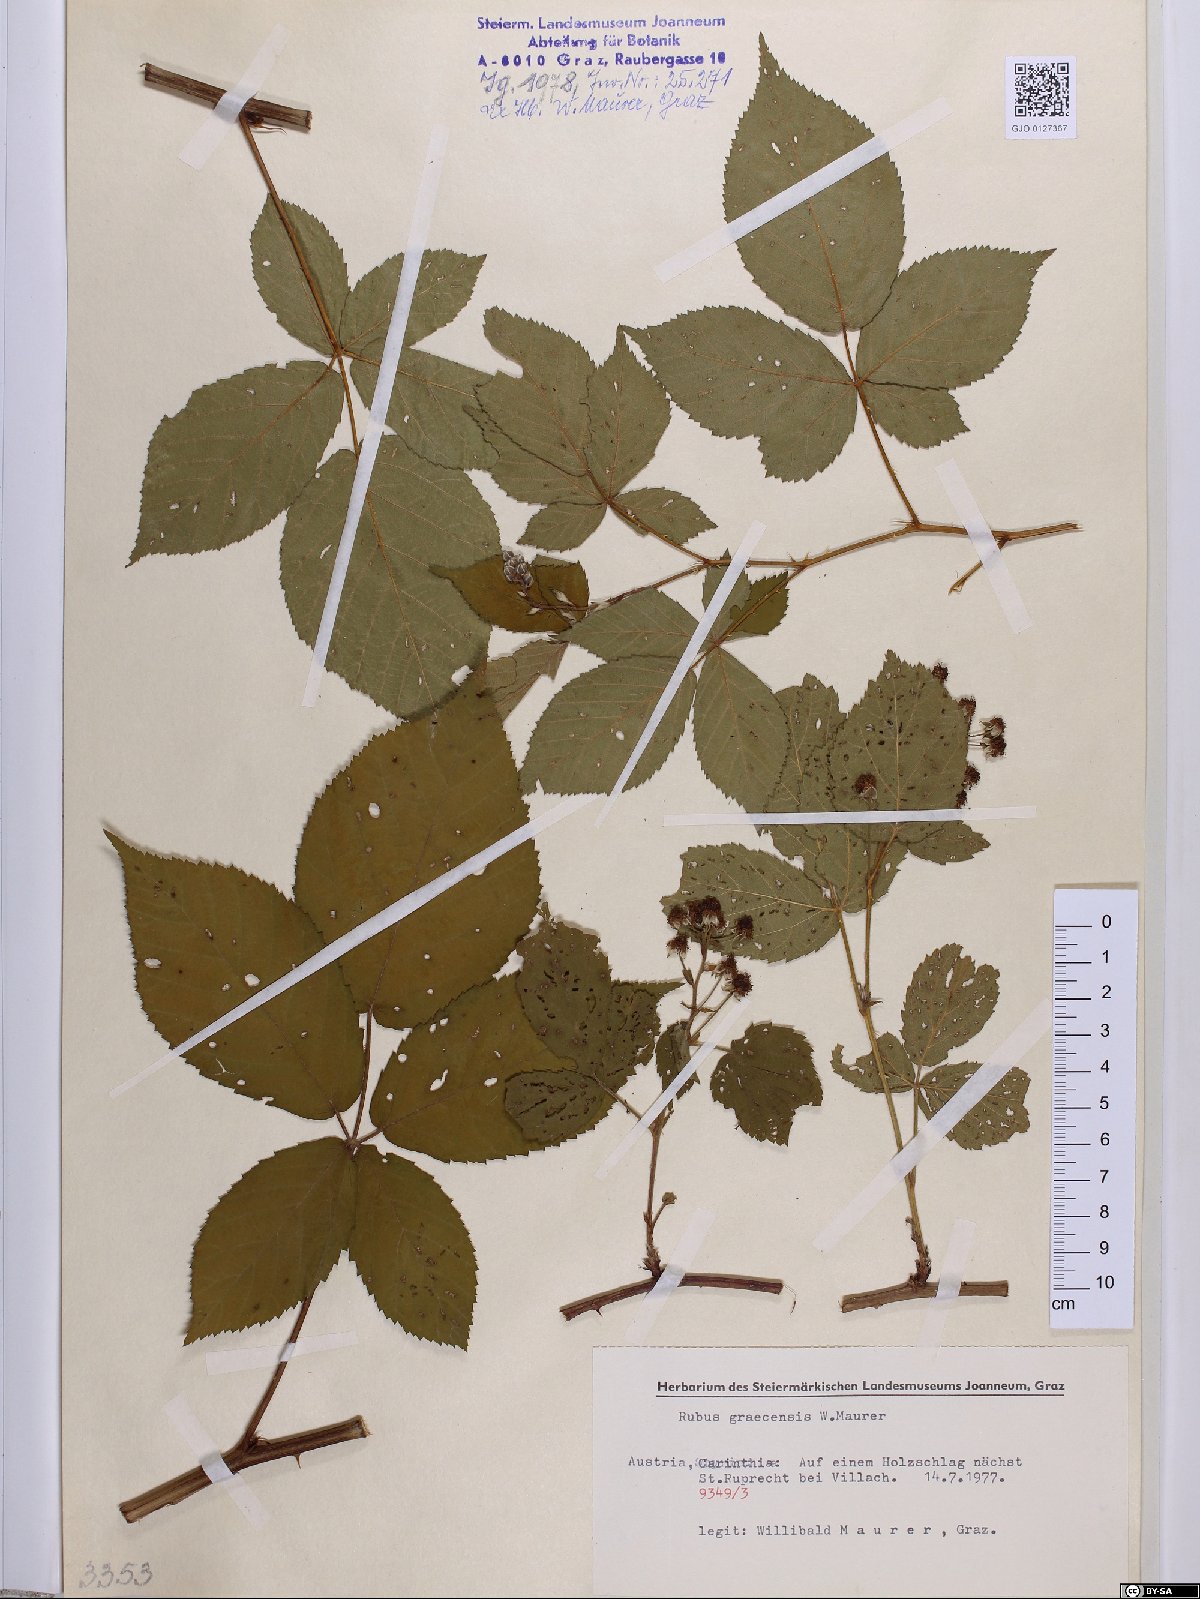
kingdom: Plantae
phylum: Tracheophyta
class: Magnoliopsida
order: Rosales
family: Rosaceae
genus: Rubus
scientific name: Rubus graecensis
